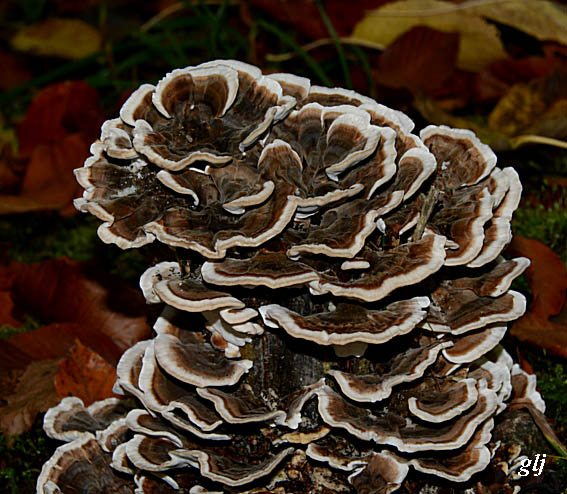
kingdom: Fungi
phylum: Basidiomycota
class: Agaricomycetes
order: Polyporales
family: Polyporaceae
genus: Trametes
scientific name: Trametes versicolor
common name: broget læderporesvamp
